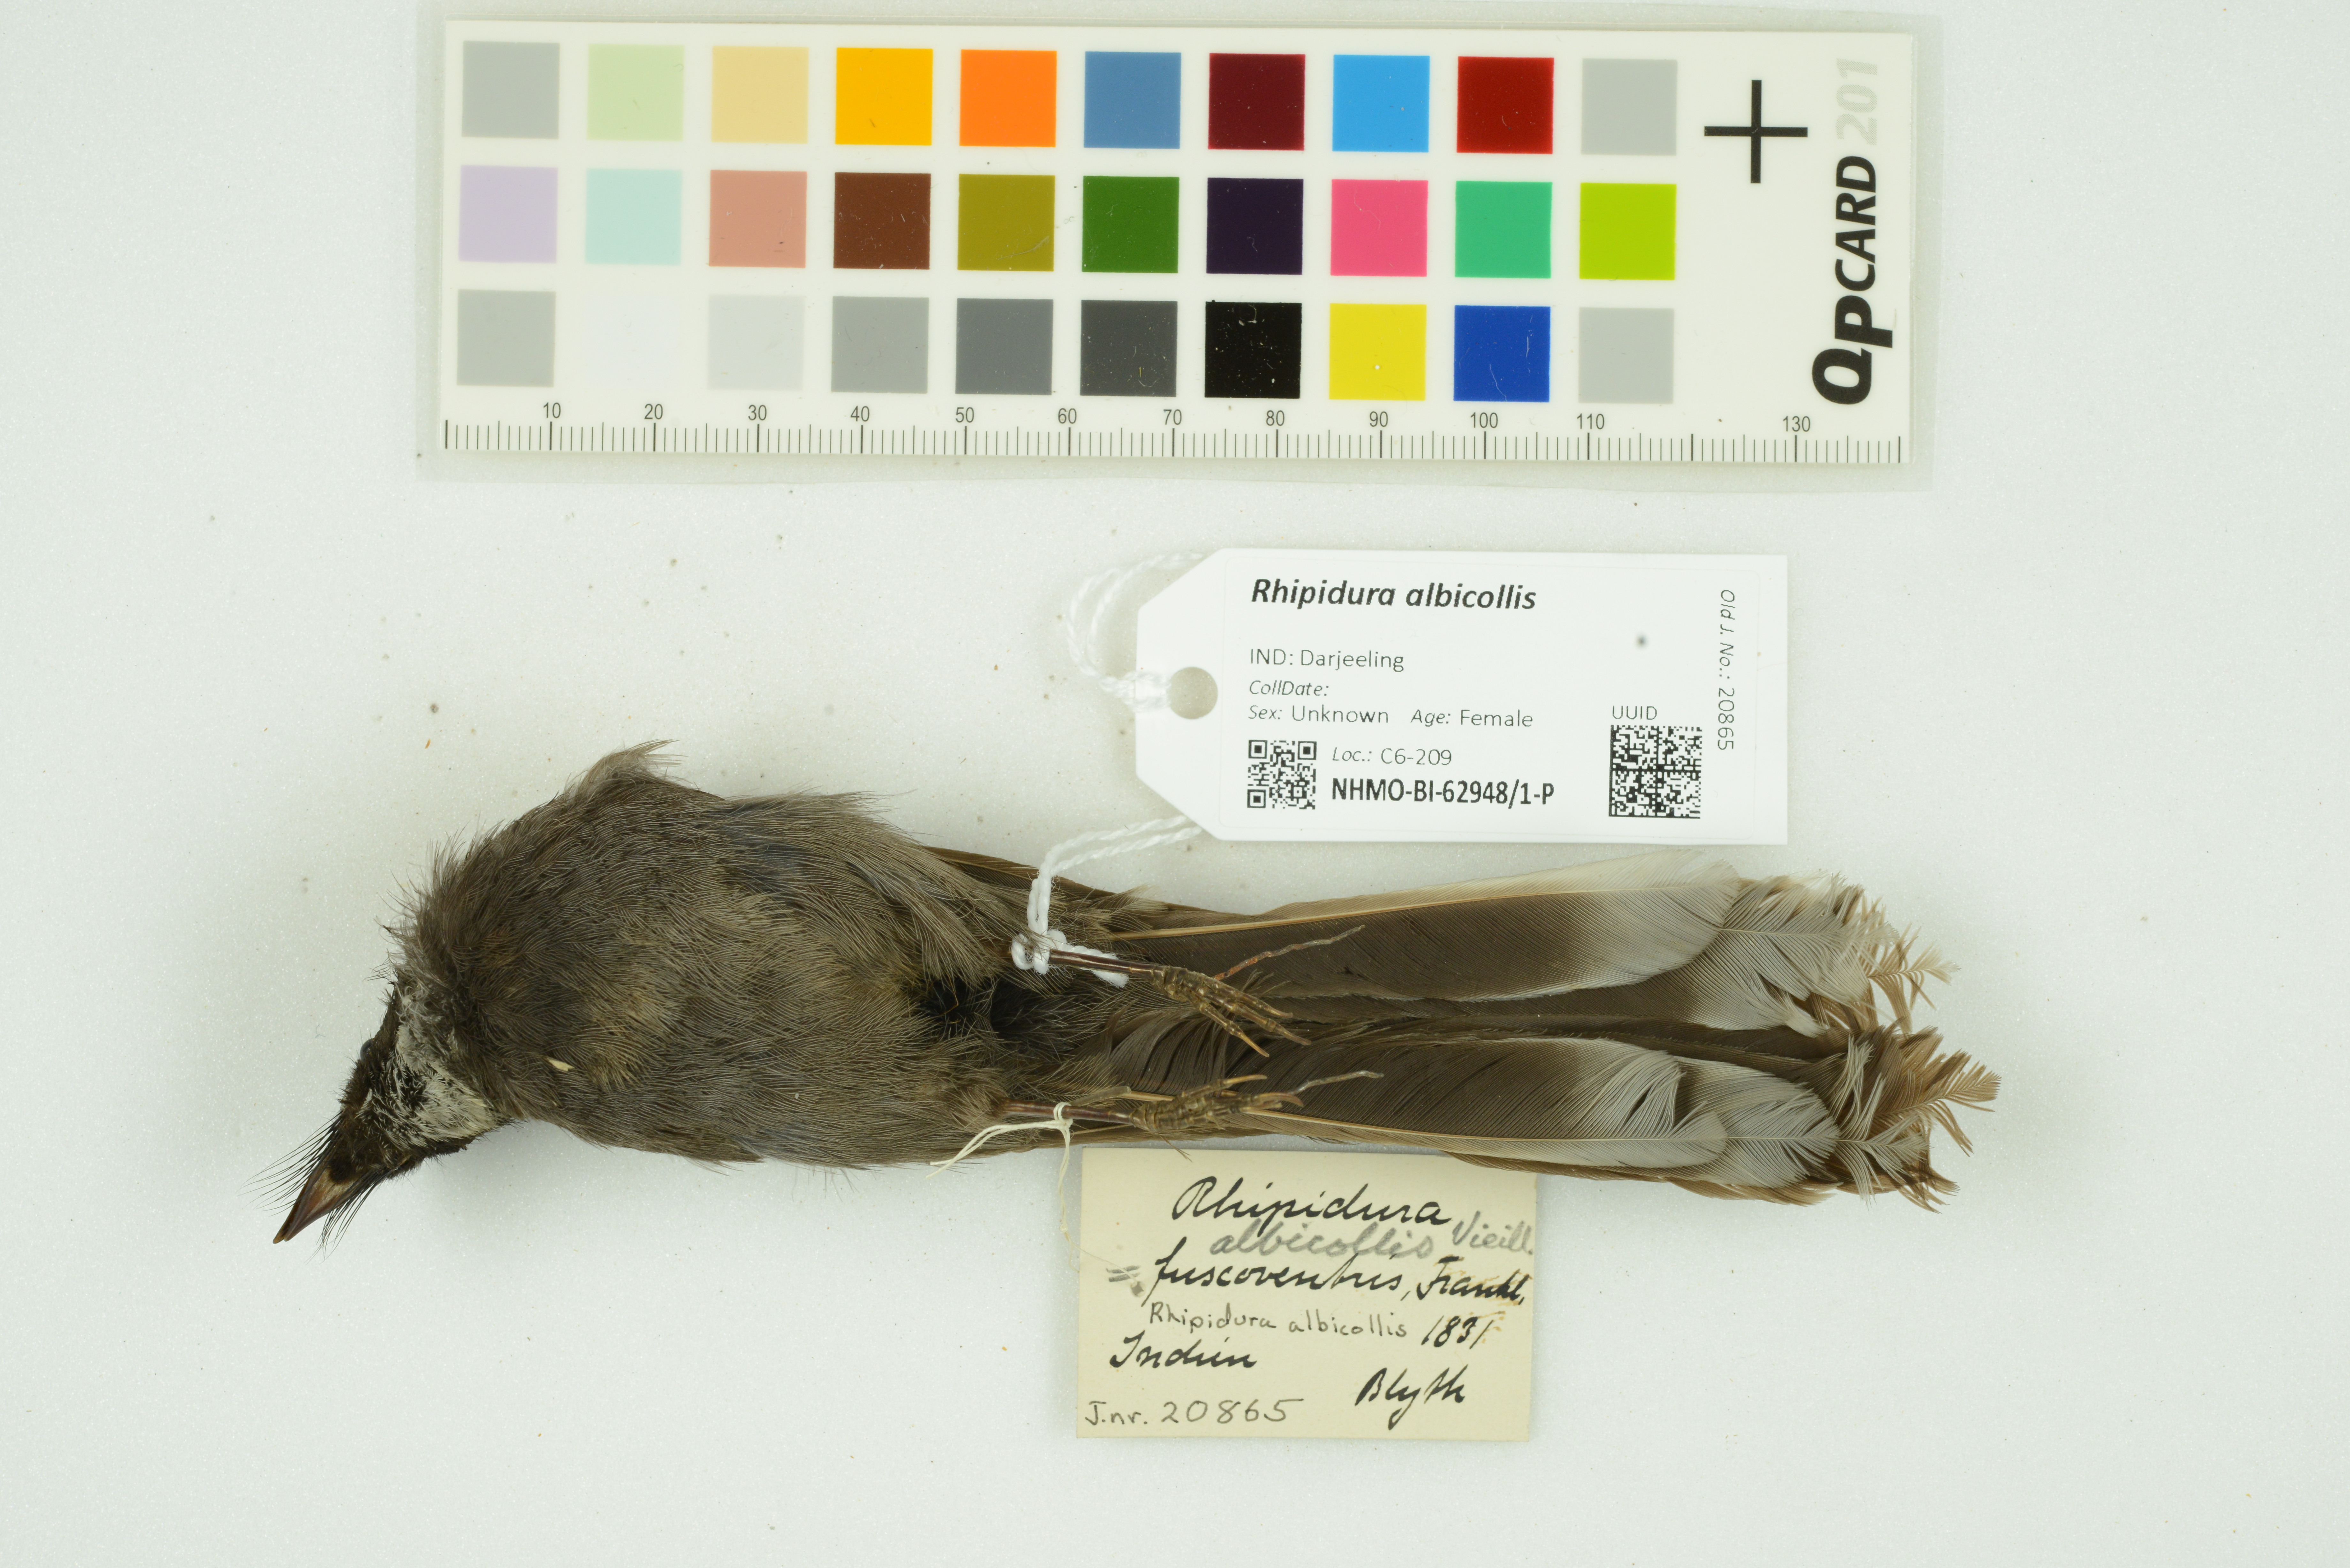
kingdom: Animalia
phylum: Chordata
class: Aves
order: Passeriformes
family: Rhipiduridae
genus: Rhipidura
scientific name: Rhipidura albicollis
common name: White-throated fantail
